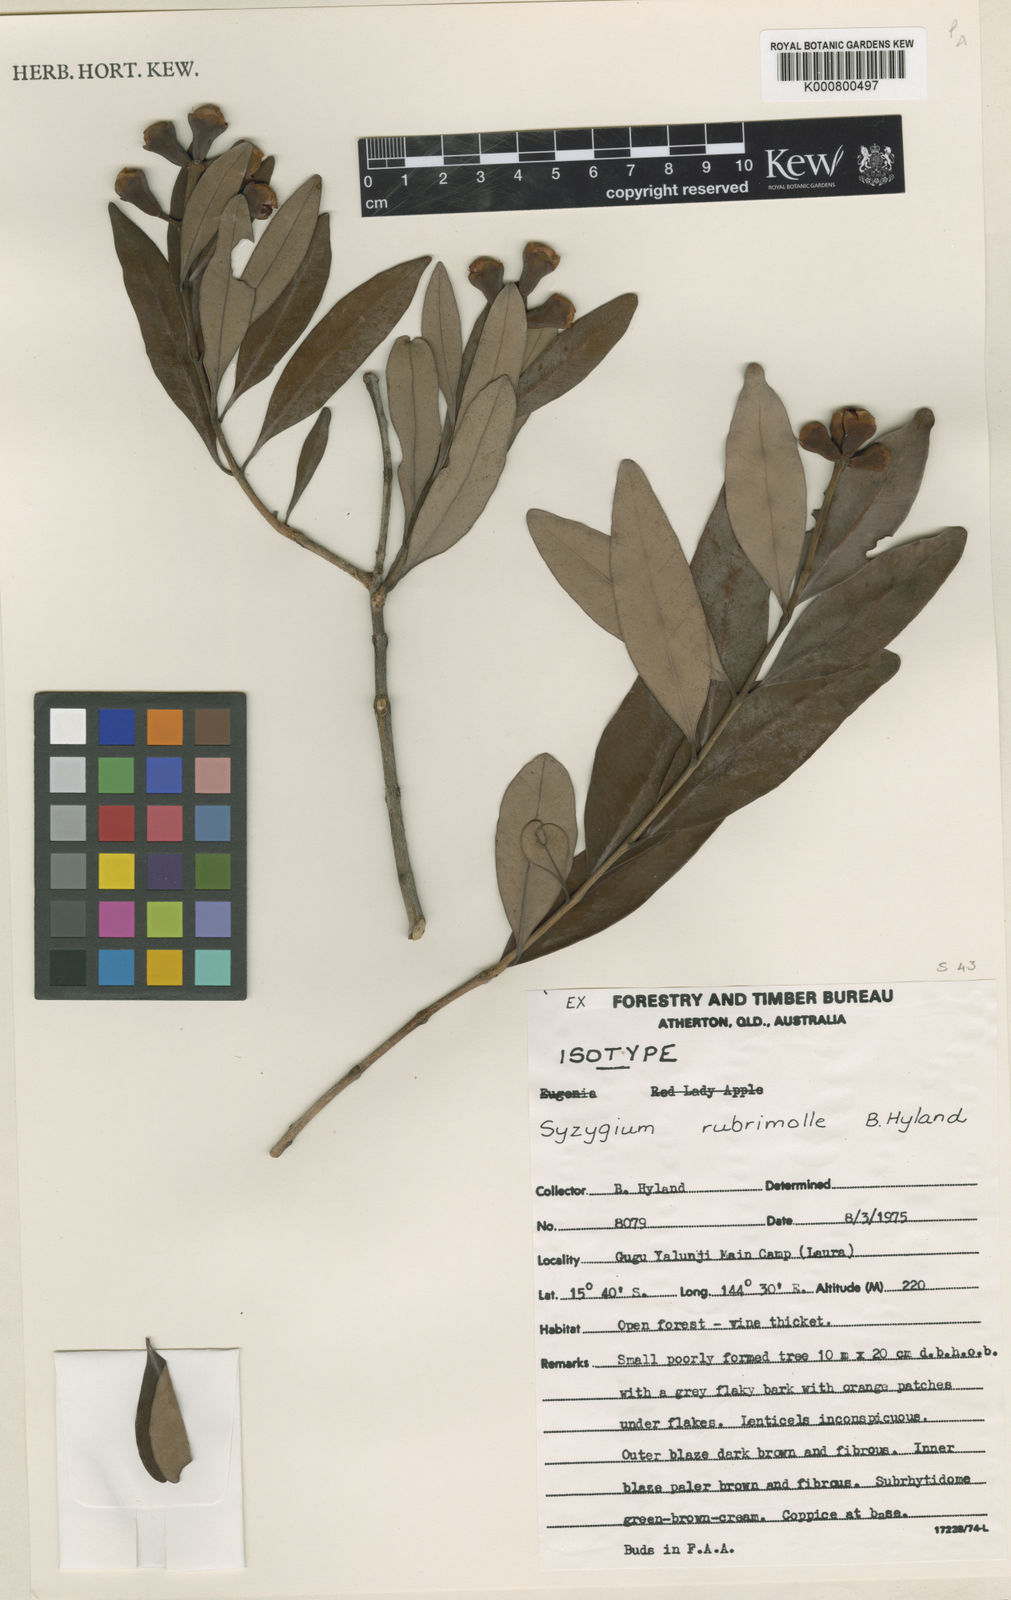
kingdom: Plantae
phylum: Tracheophyta
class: Magnoliopsida
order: Myrtales
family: Myrtaceae
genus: Syzygium
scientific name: Syzygium rubrimolle
